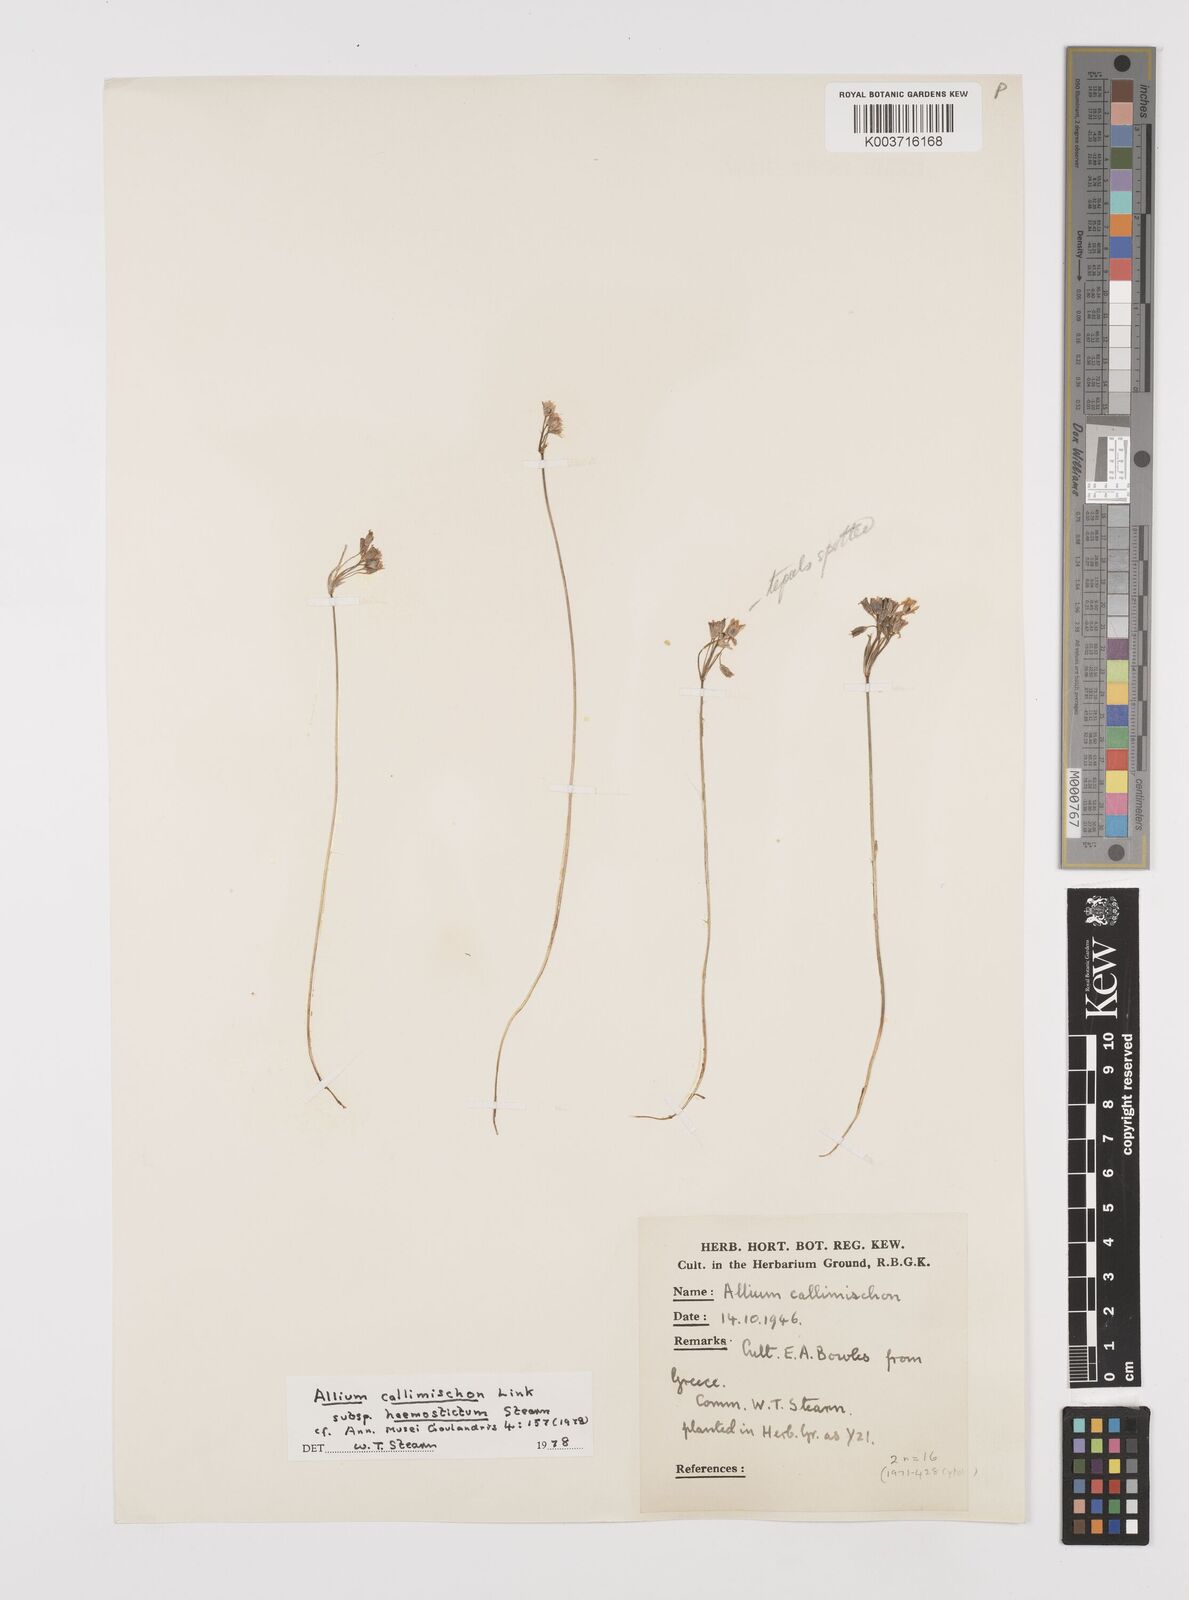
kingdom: Plantae
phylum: Tracheophyta
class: Liliopsida
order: Asparagales
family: Amaryllidaceae
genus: Allium
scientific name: Allium callimischon
